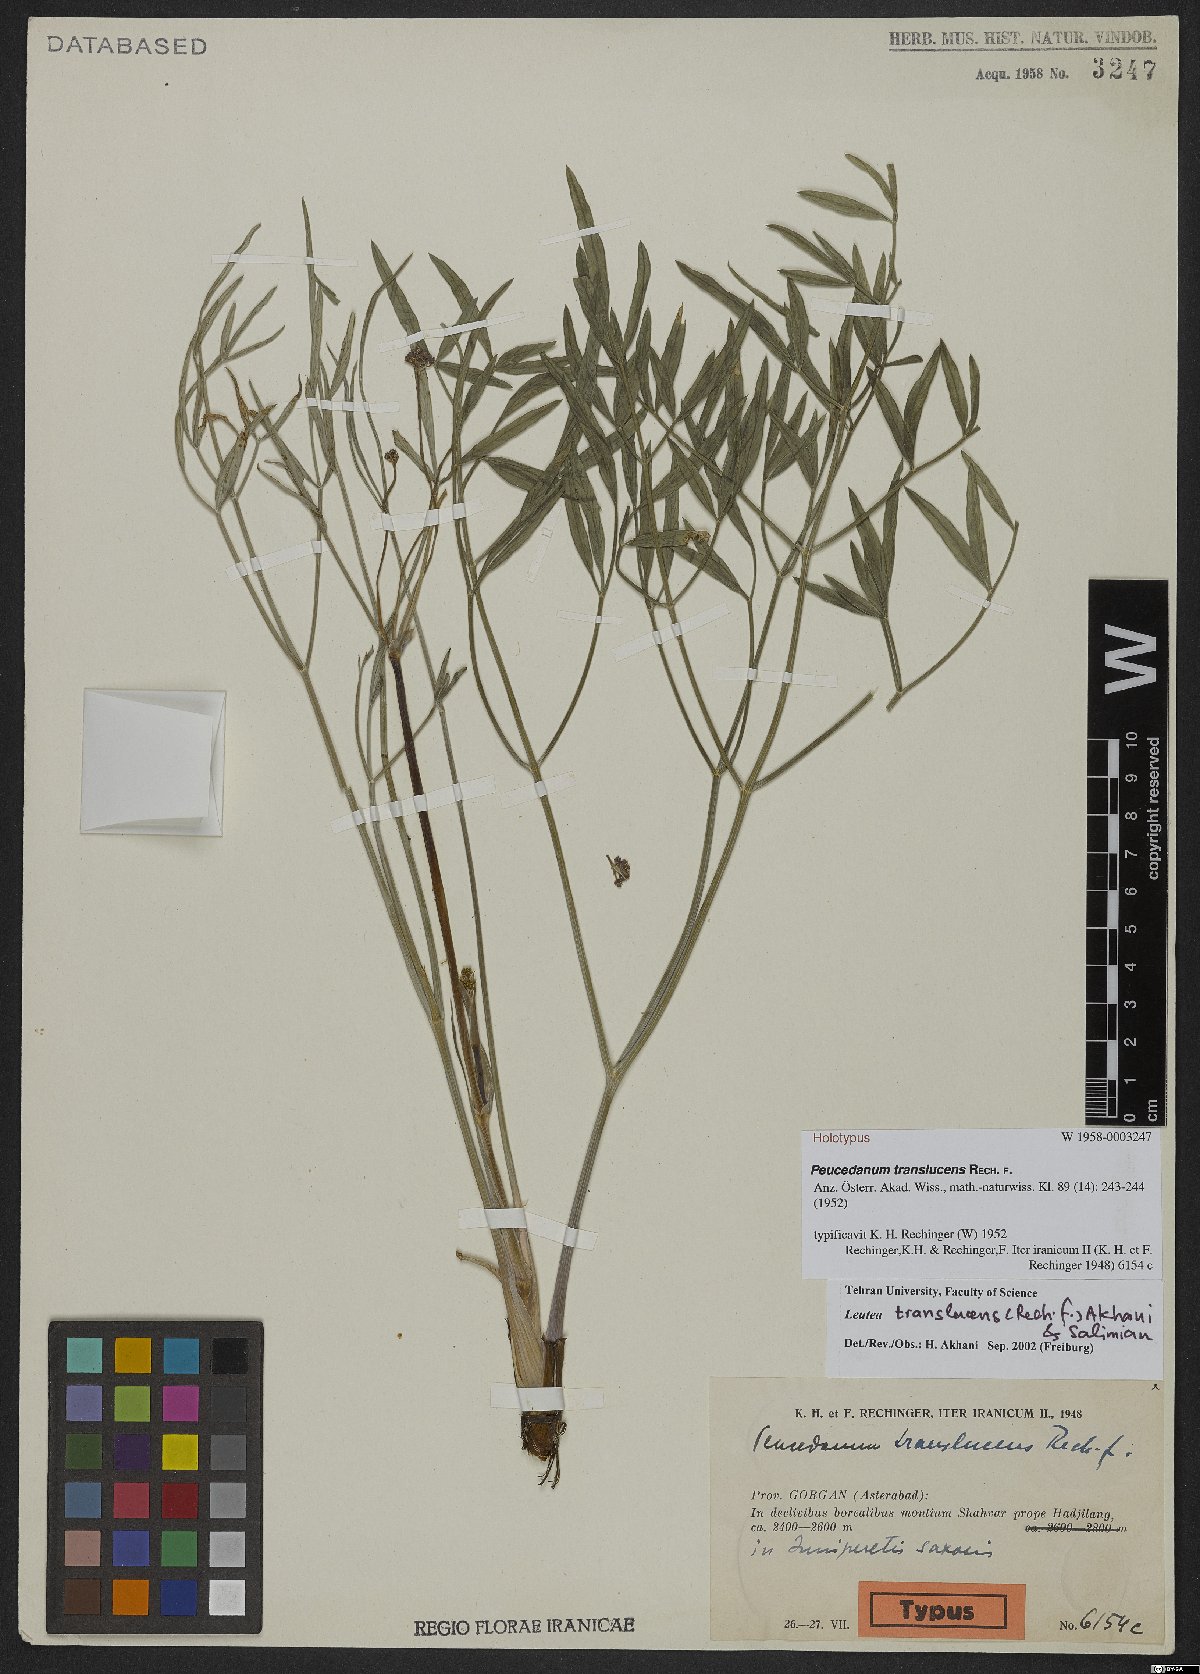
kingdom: Plantae
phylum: Tracheophyta
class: Magnoliopsida
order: Apiales
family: Apiaceae
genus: Leutea
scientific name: Leutea translucens
